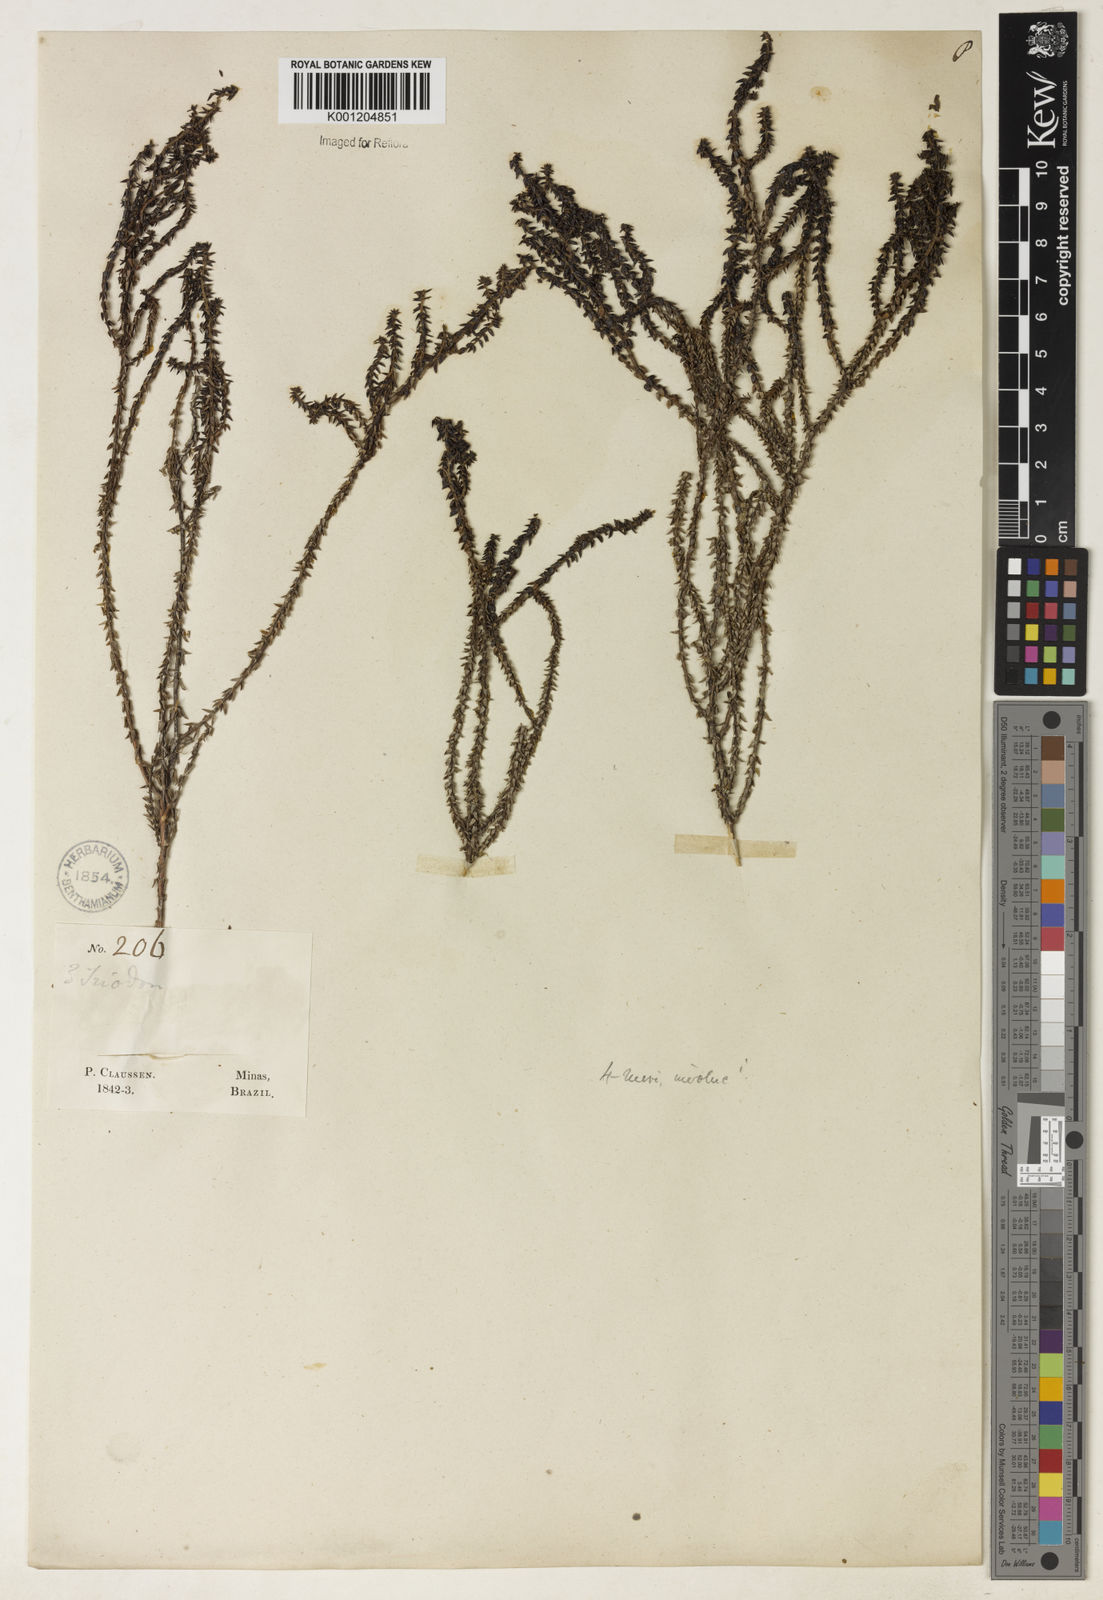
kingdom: Plantae
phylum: Tracheophyta
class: Magnoliopsida
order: Gentianales
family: Rubiaceae
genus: Galium
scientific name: Galium megapotamicum
